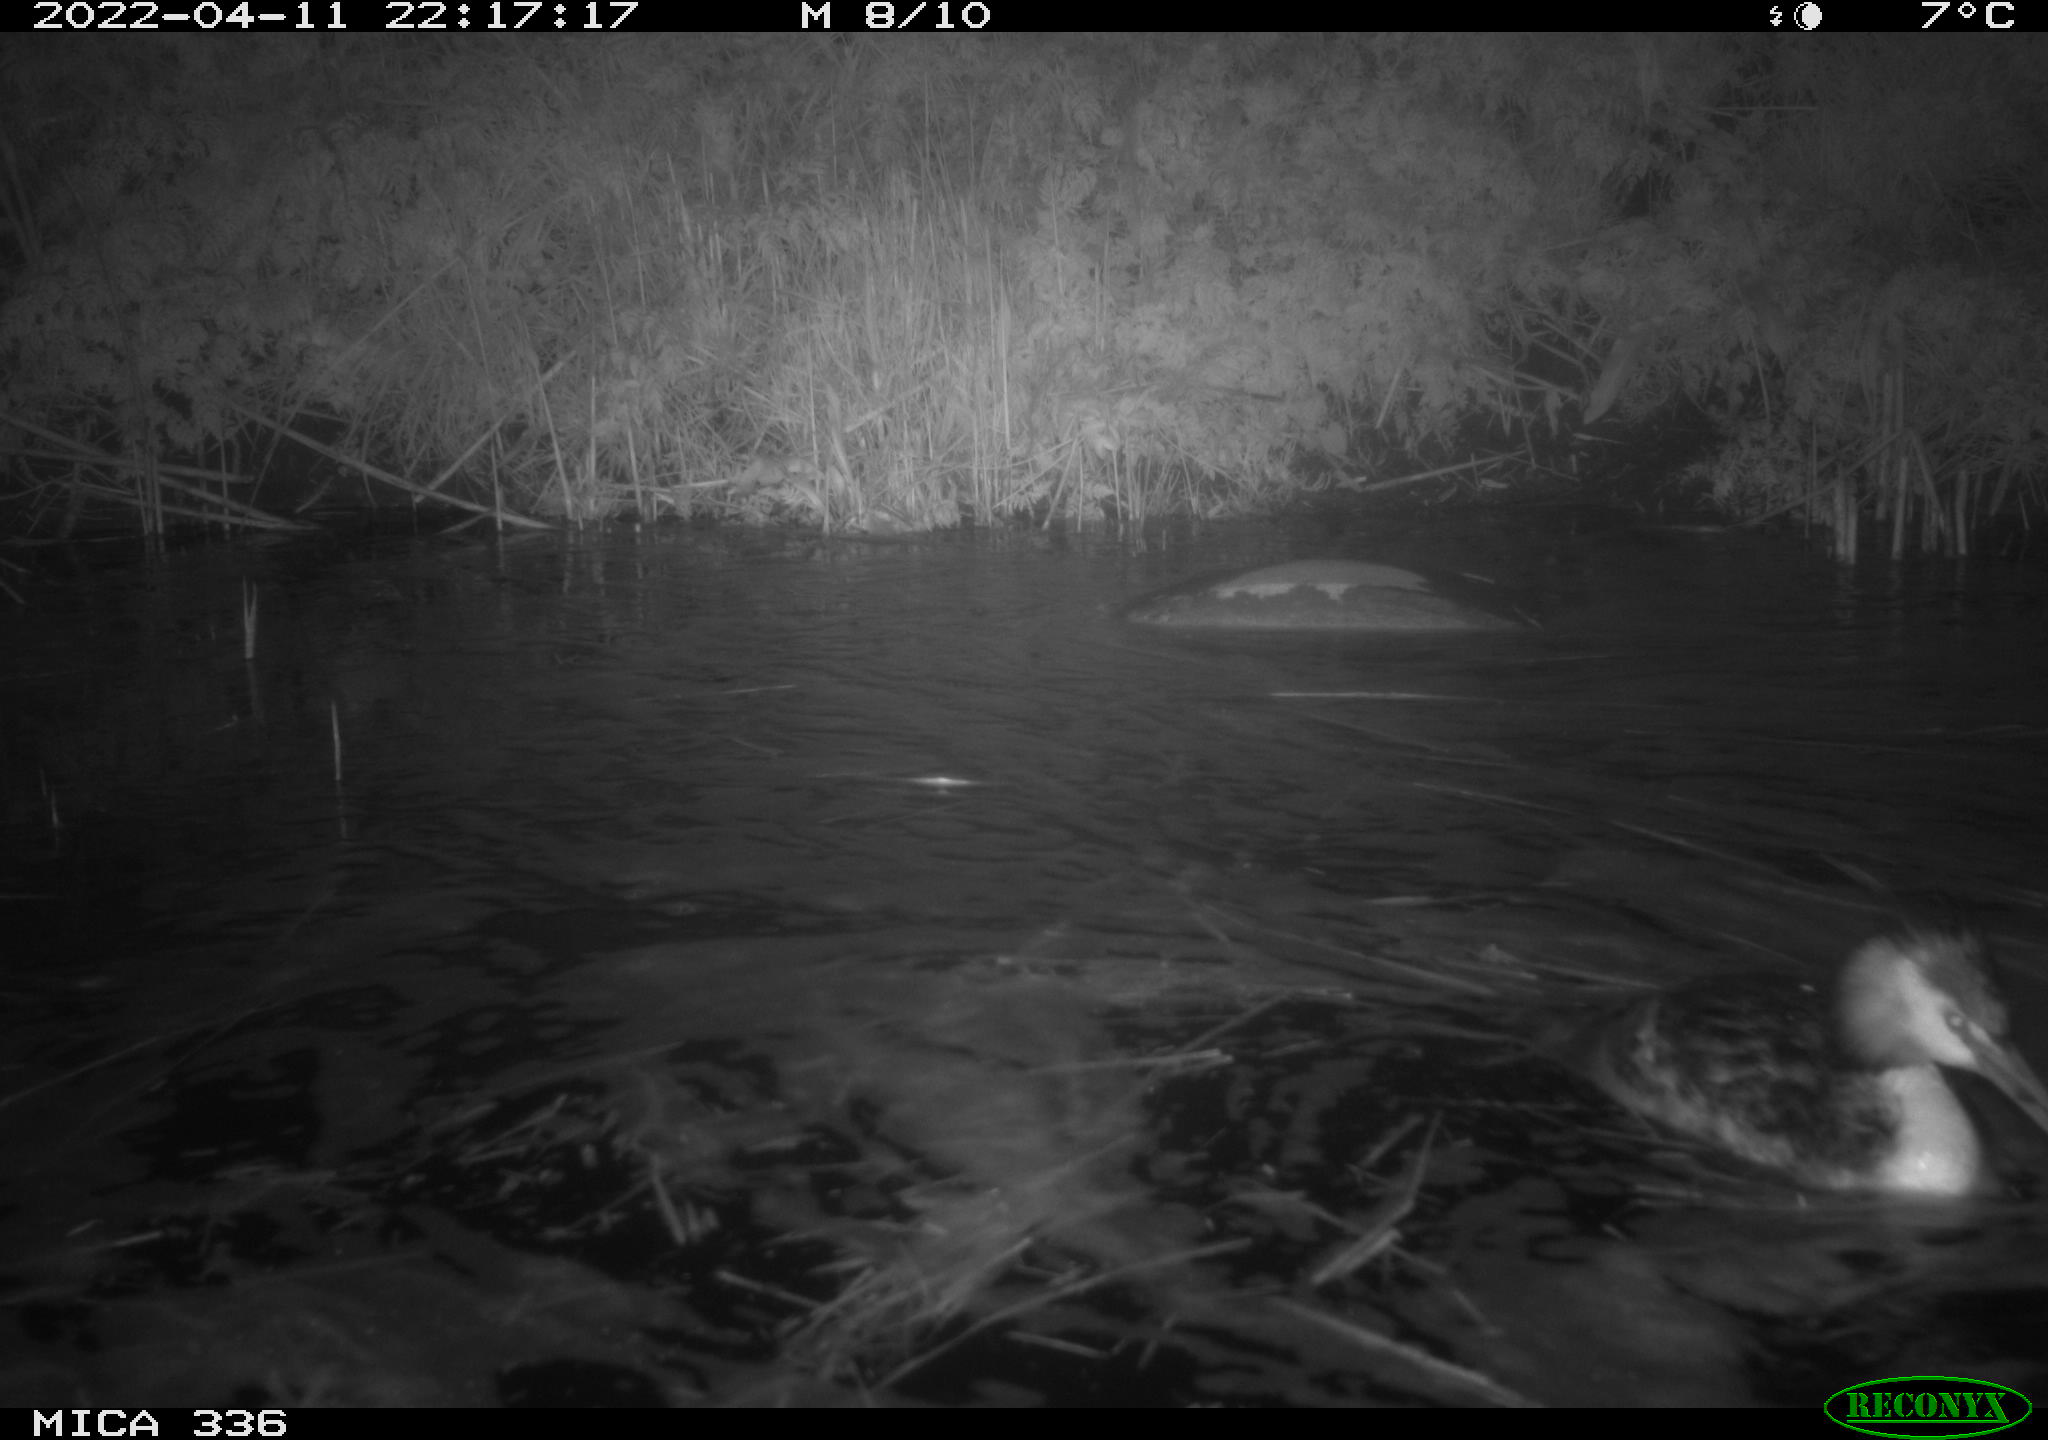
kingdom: Animalia
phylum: Chordata
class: Aves
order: Podicipediformes
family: Podicipedidae
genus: Podiceps
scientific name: Podiceps cristatus
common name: Great crested grebe
